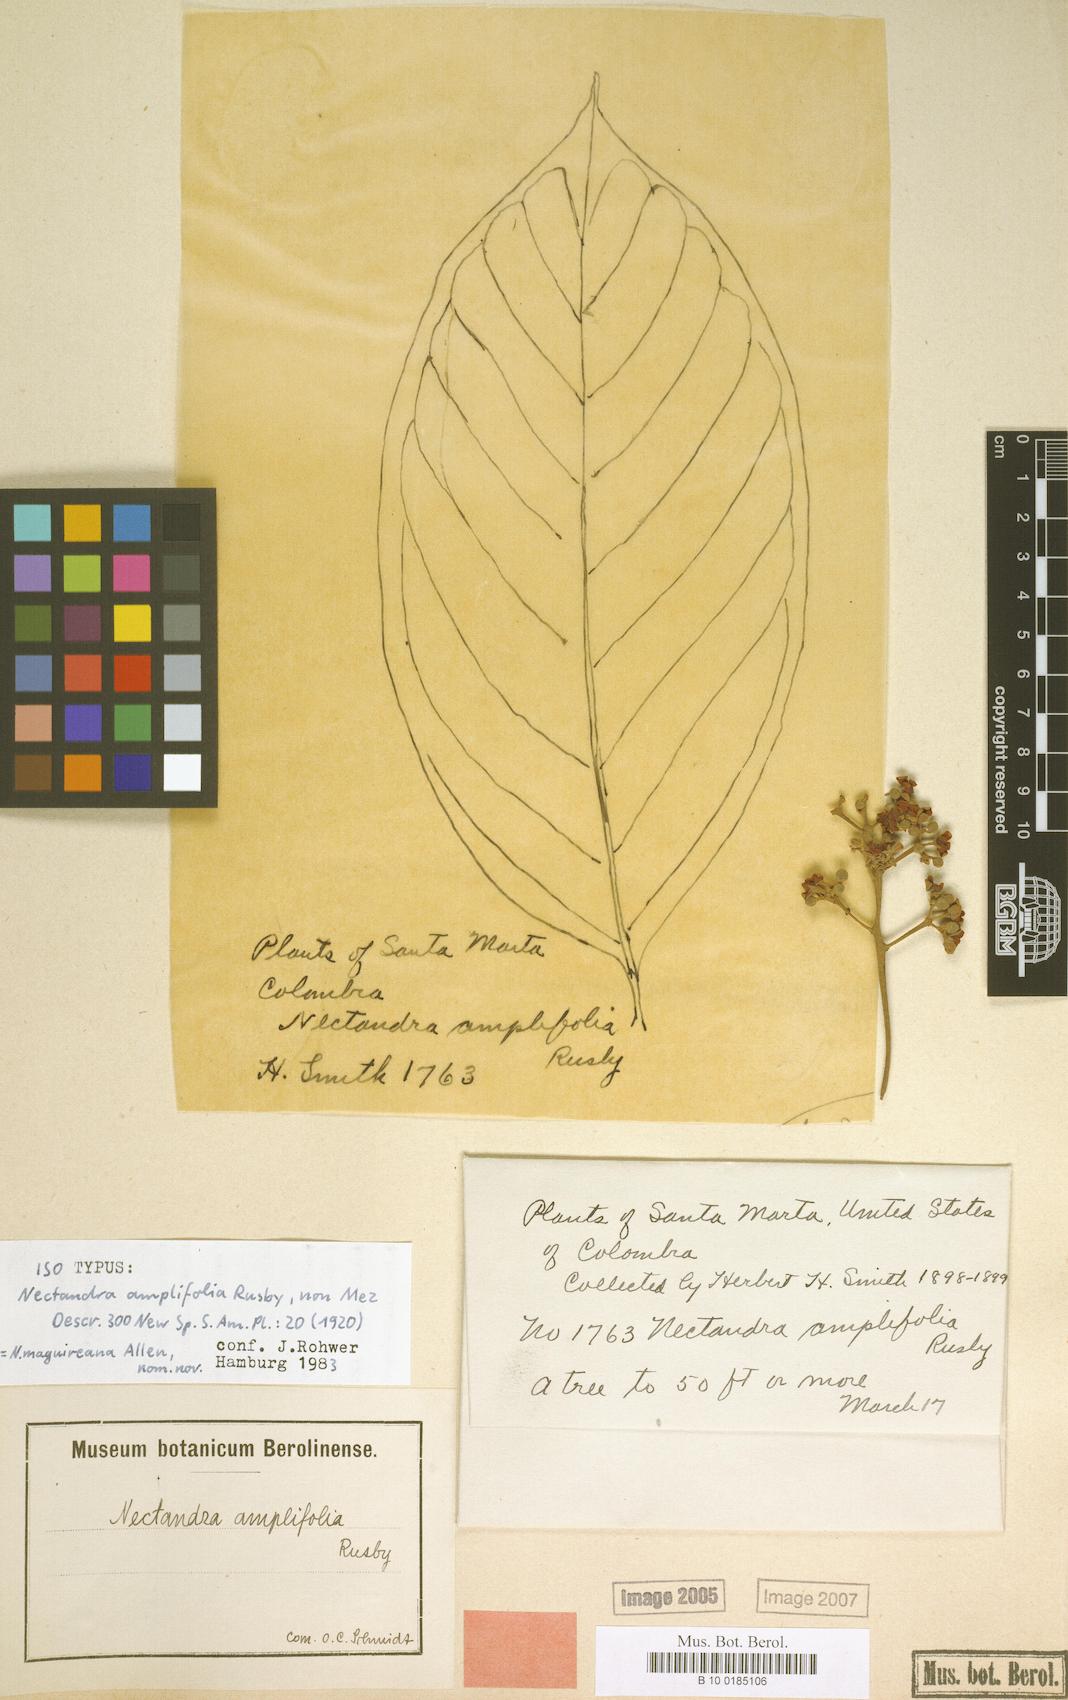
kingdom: Plantae
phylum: Tracheophyta
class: Magnoliopsida
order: Laurales
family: Lauraceae
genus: Nectandra
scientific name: Nectandra maguireana
